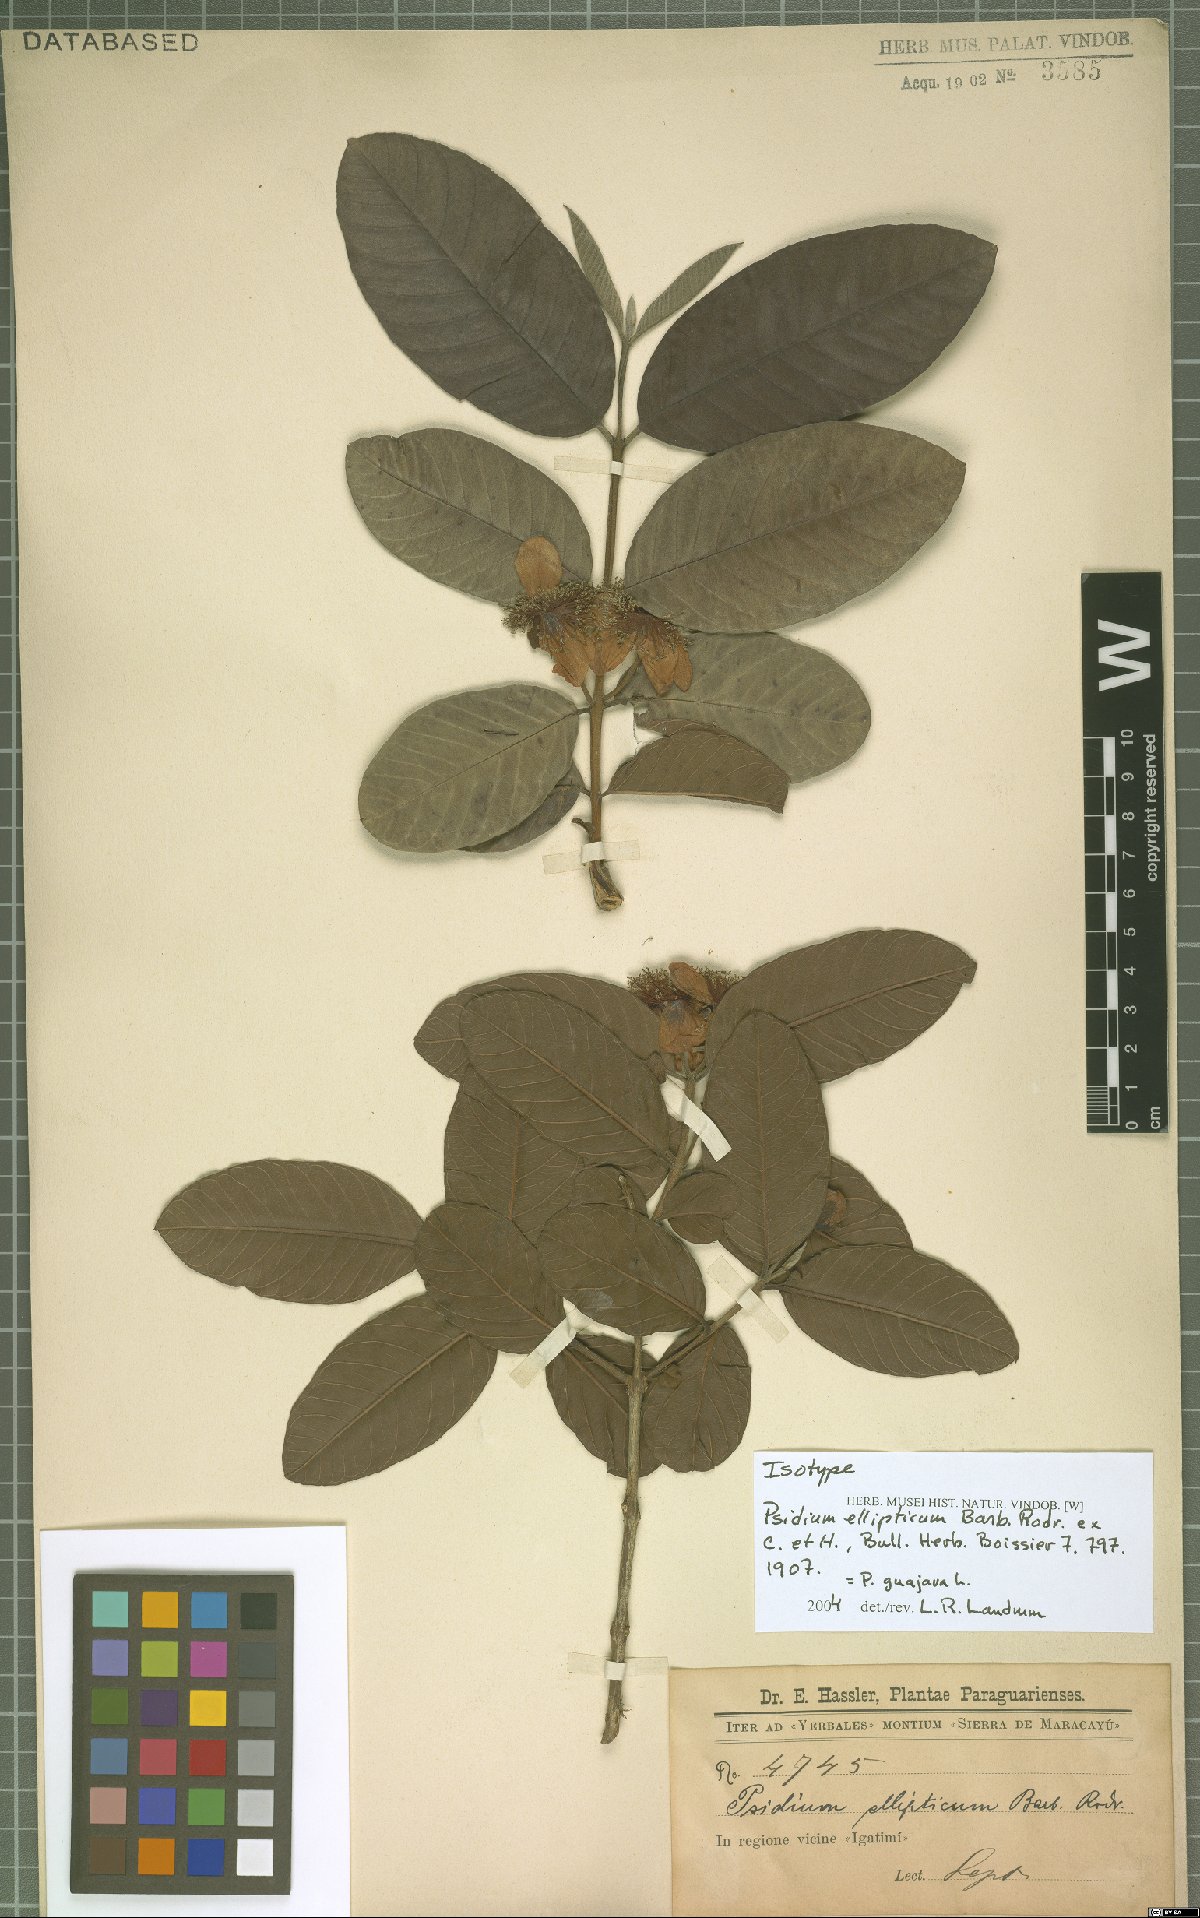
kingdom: Plantae
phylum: Tracheophyta
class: Magnoliopsida
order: Myrtales
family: Myrtaceae
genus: Psidium
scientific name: Psidium guajava
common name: Guava
